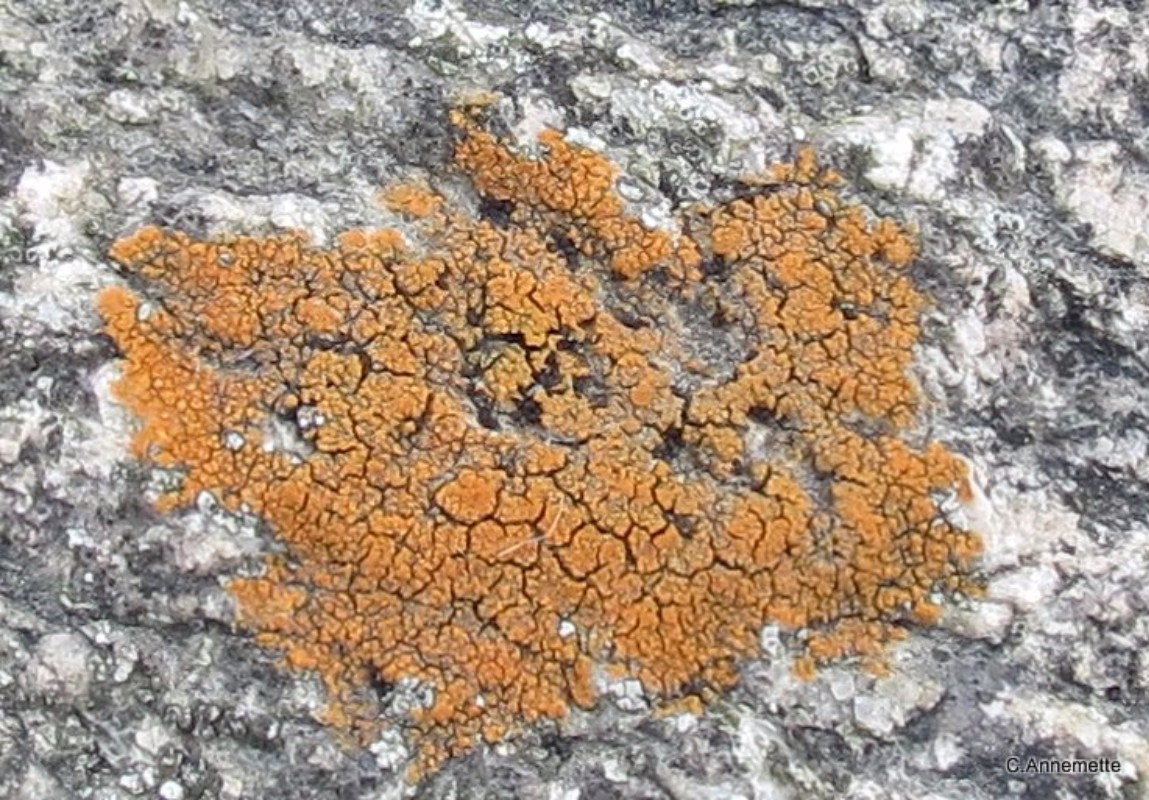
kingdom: Fungi
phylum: Ascomycota
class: Lecanoromycetes
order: Teloschistales
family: Teloschistaceae
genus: Flavoplaca
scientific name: Flavoplaca marina
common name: strand-orangelav
